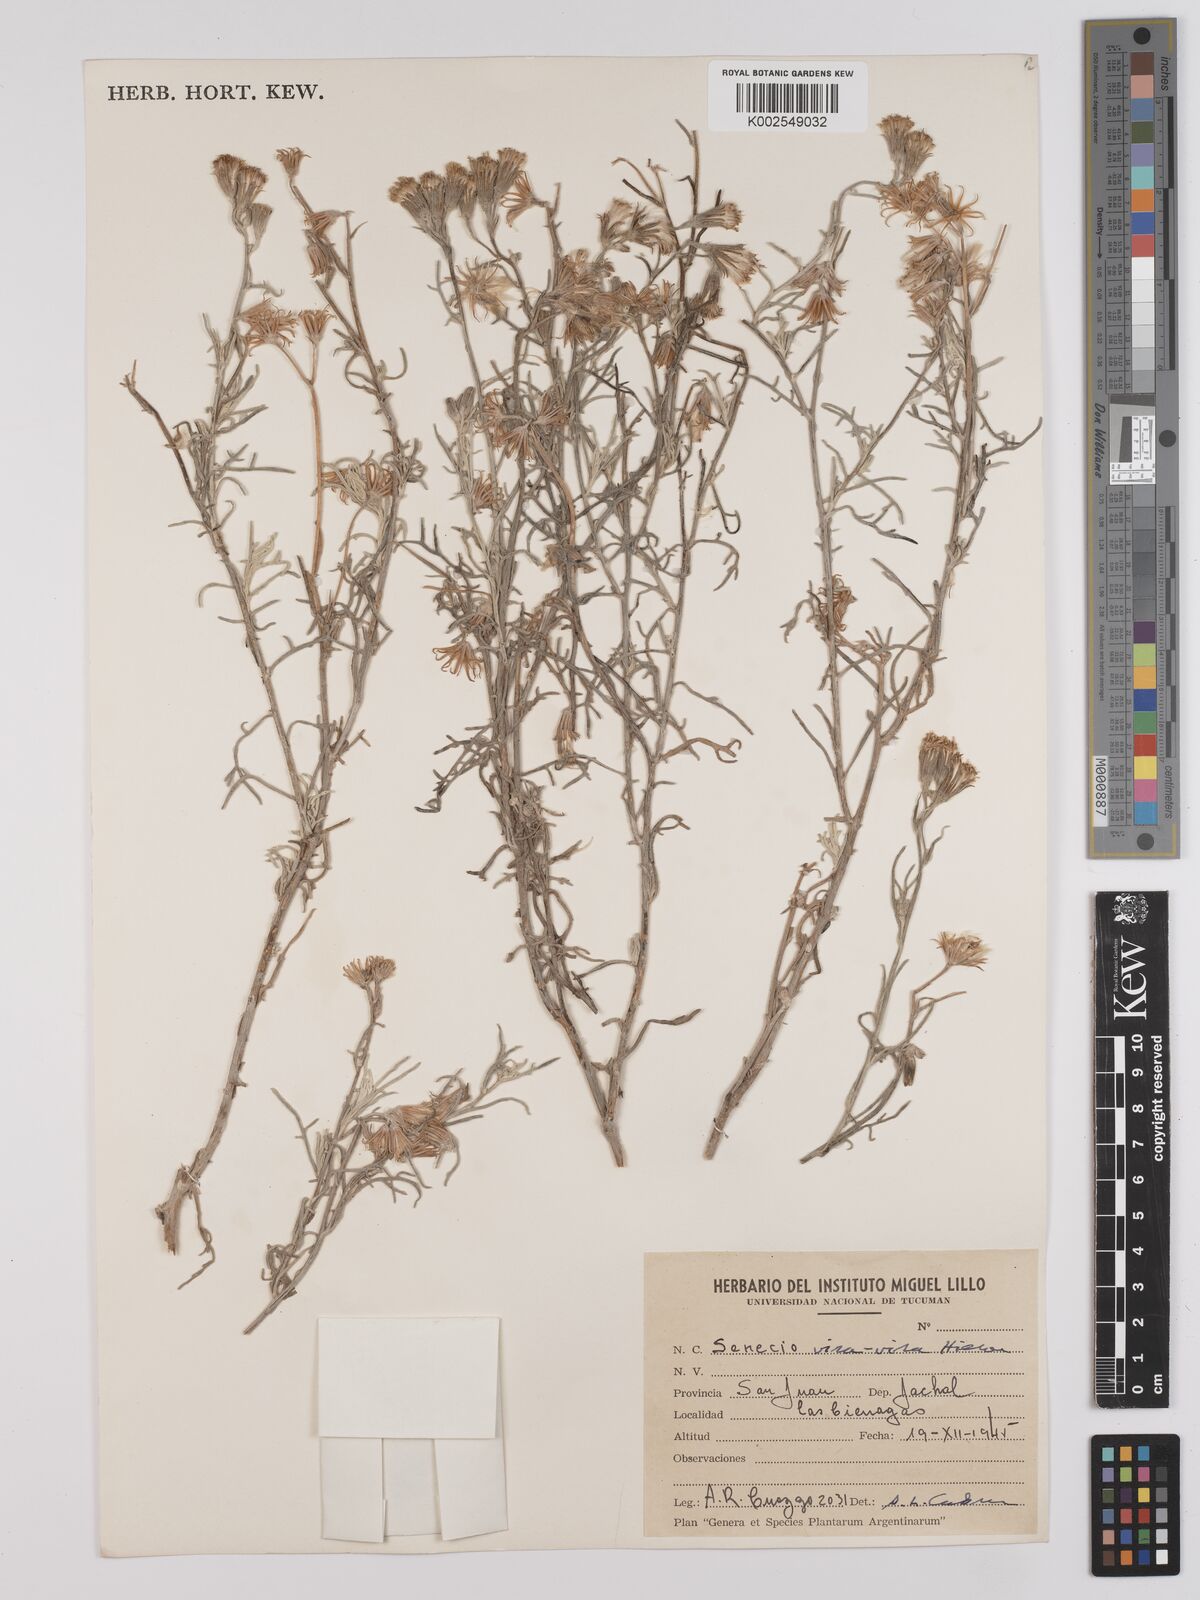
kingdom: Plantae
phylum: Tracheophyta
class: Magnoliopsida
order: Asterales
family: Asteraceae
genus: Senecio
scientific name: Senecio leucostachys
